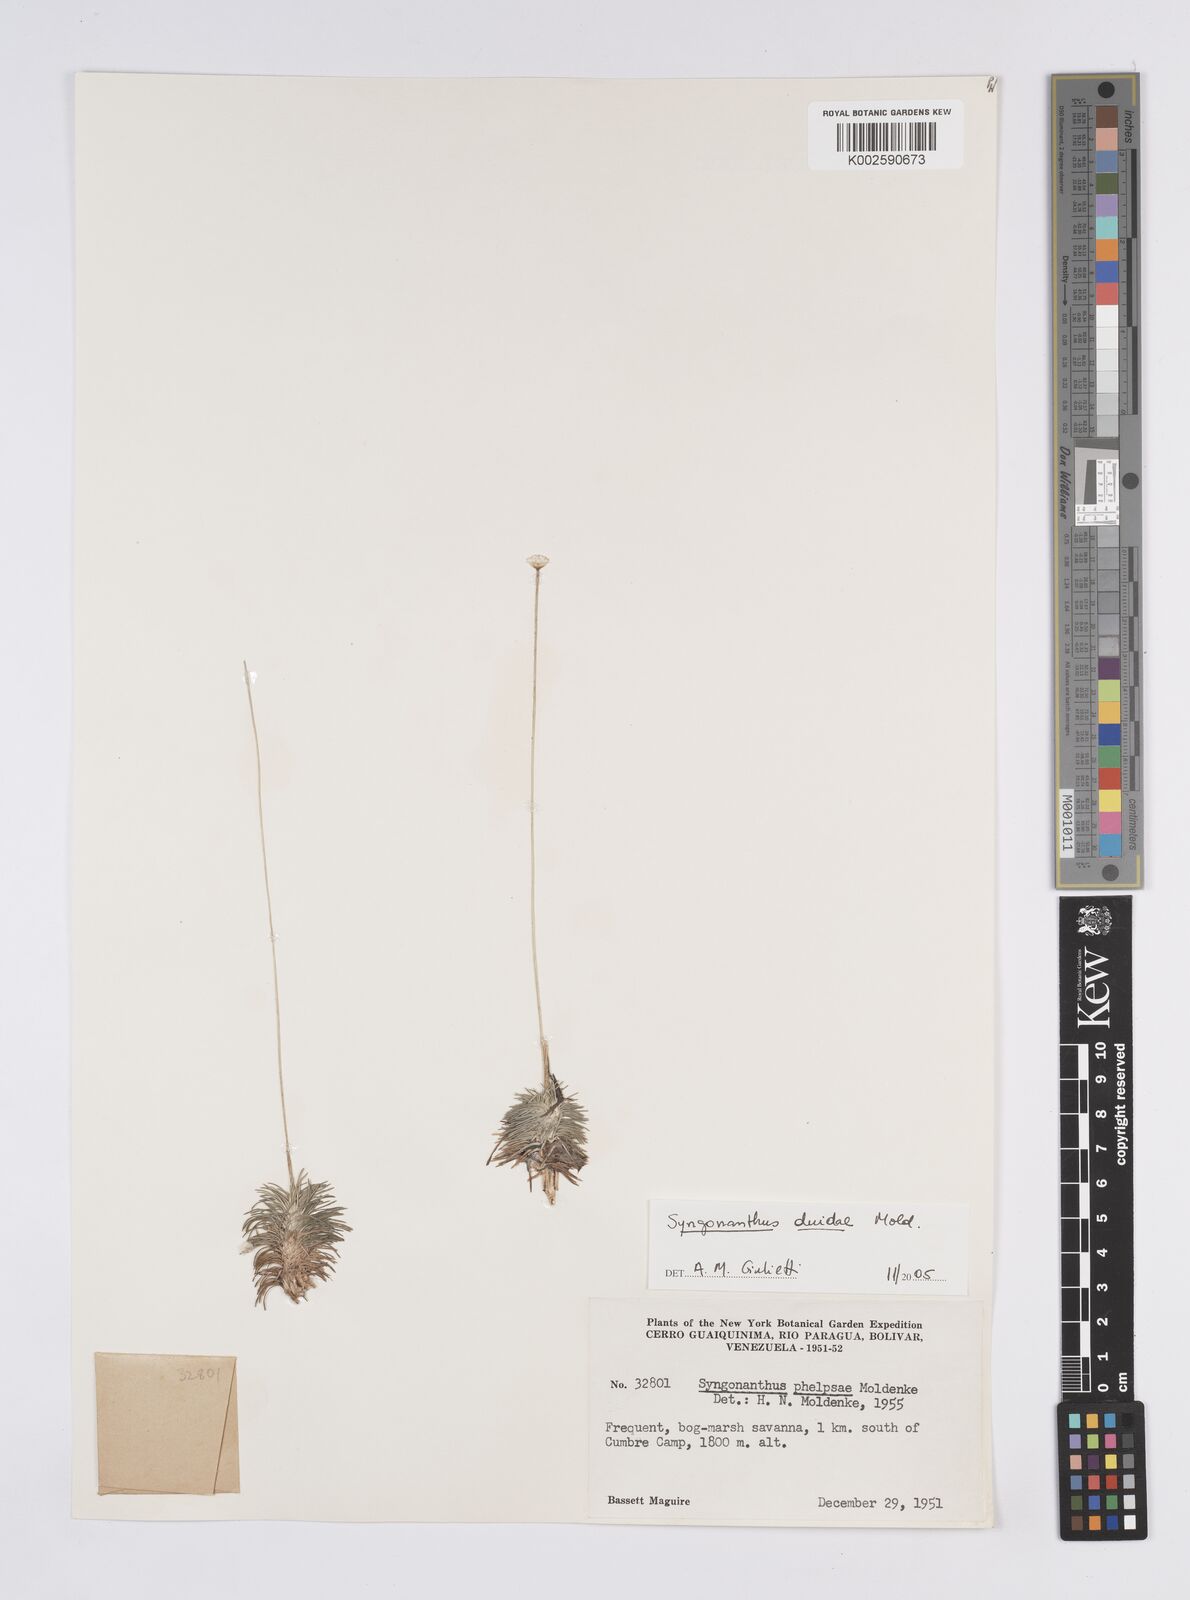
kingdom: Plantae
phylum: Tracheophyta
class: Liliopsida
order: Poales
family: Eriocaulaceae
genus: Syngonanthus
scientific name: Syngonanthus duidae
